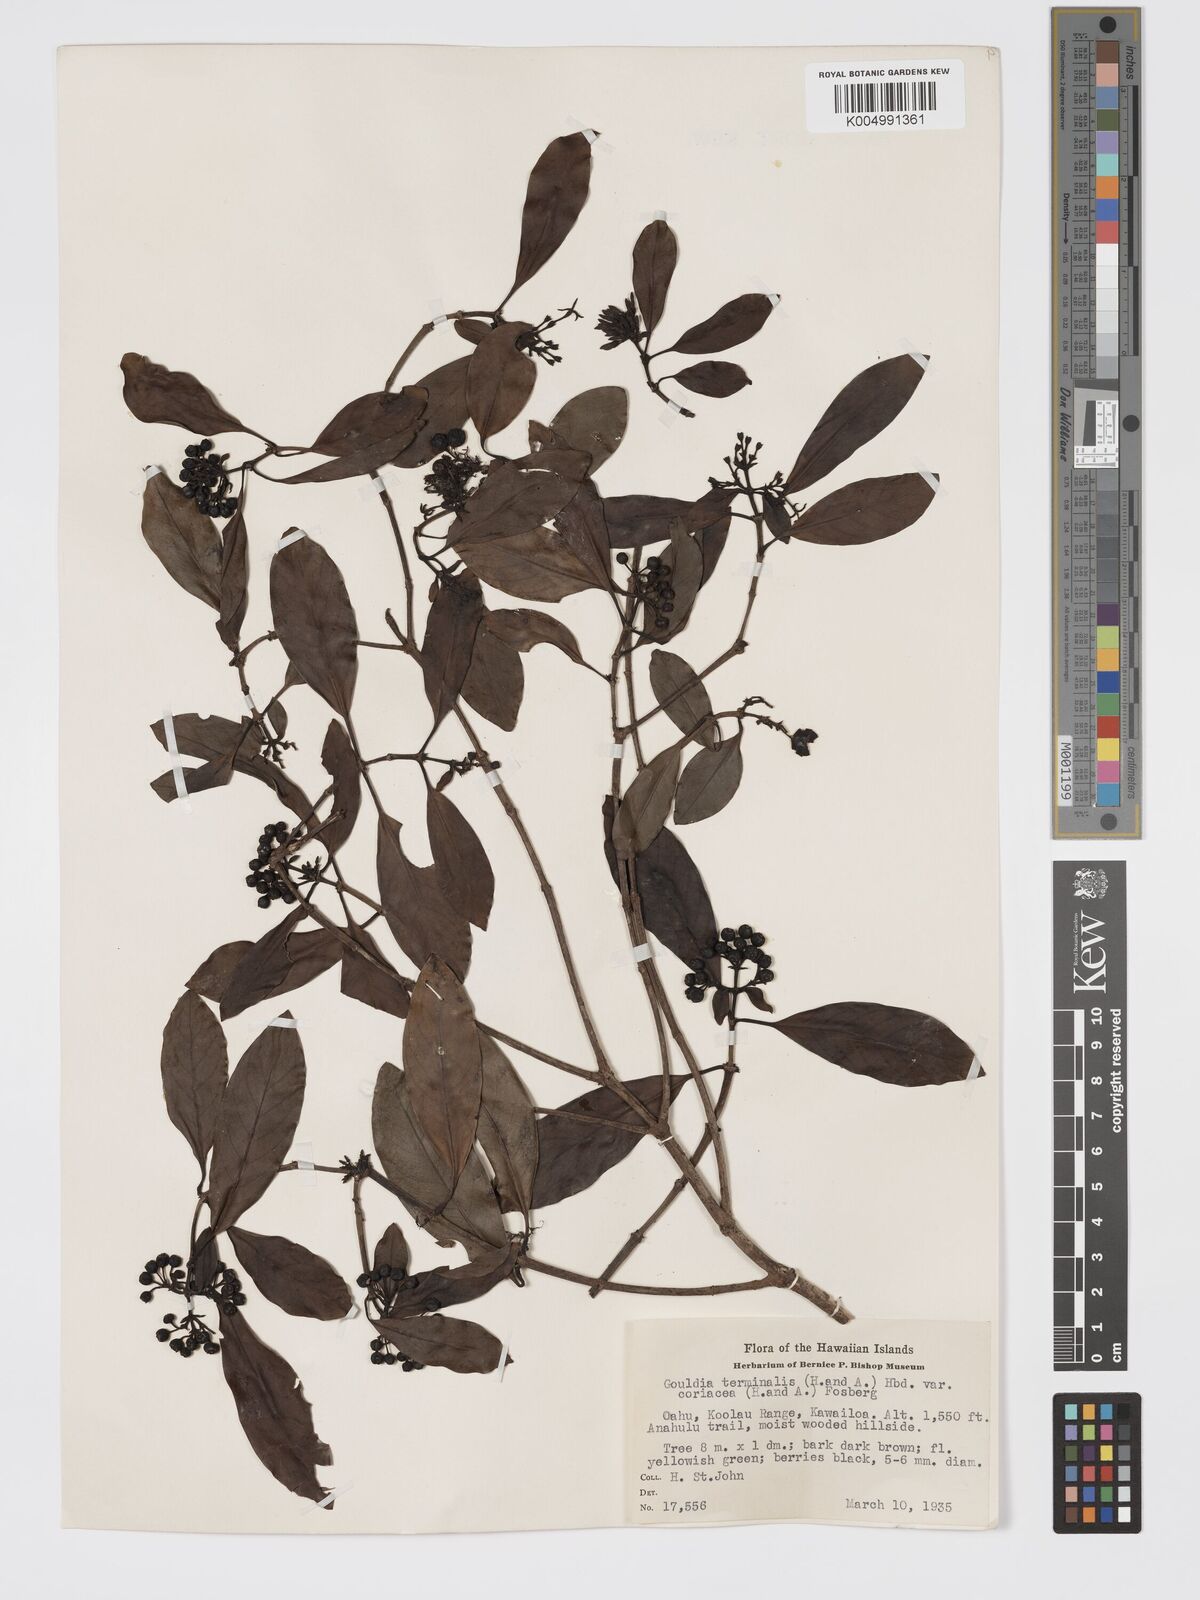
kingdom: Plantae
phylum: Tracheophyta
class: Magnoliopsida
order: Gentianales
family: Rubiaceae
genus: Kadua
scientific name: Kadua affinis
